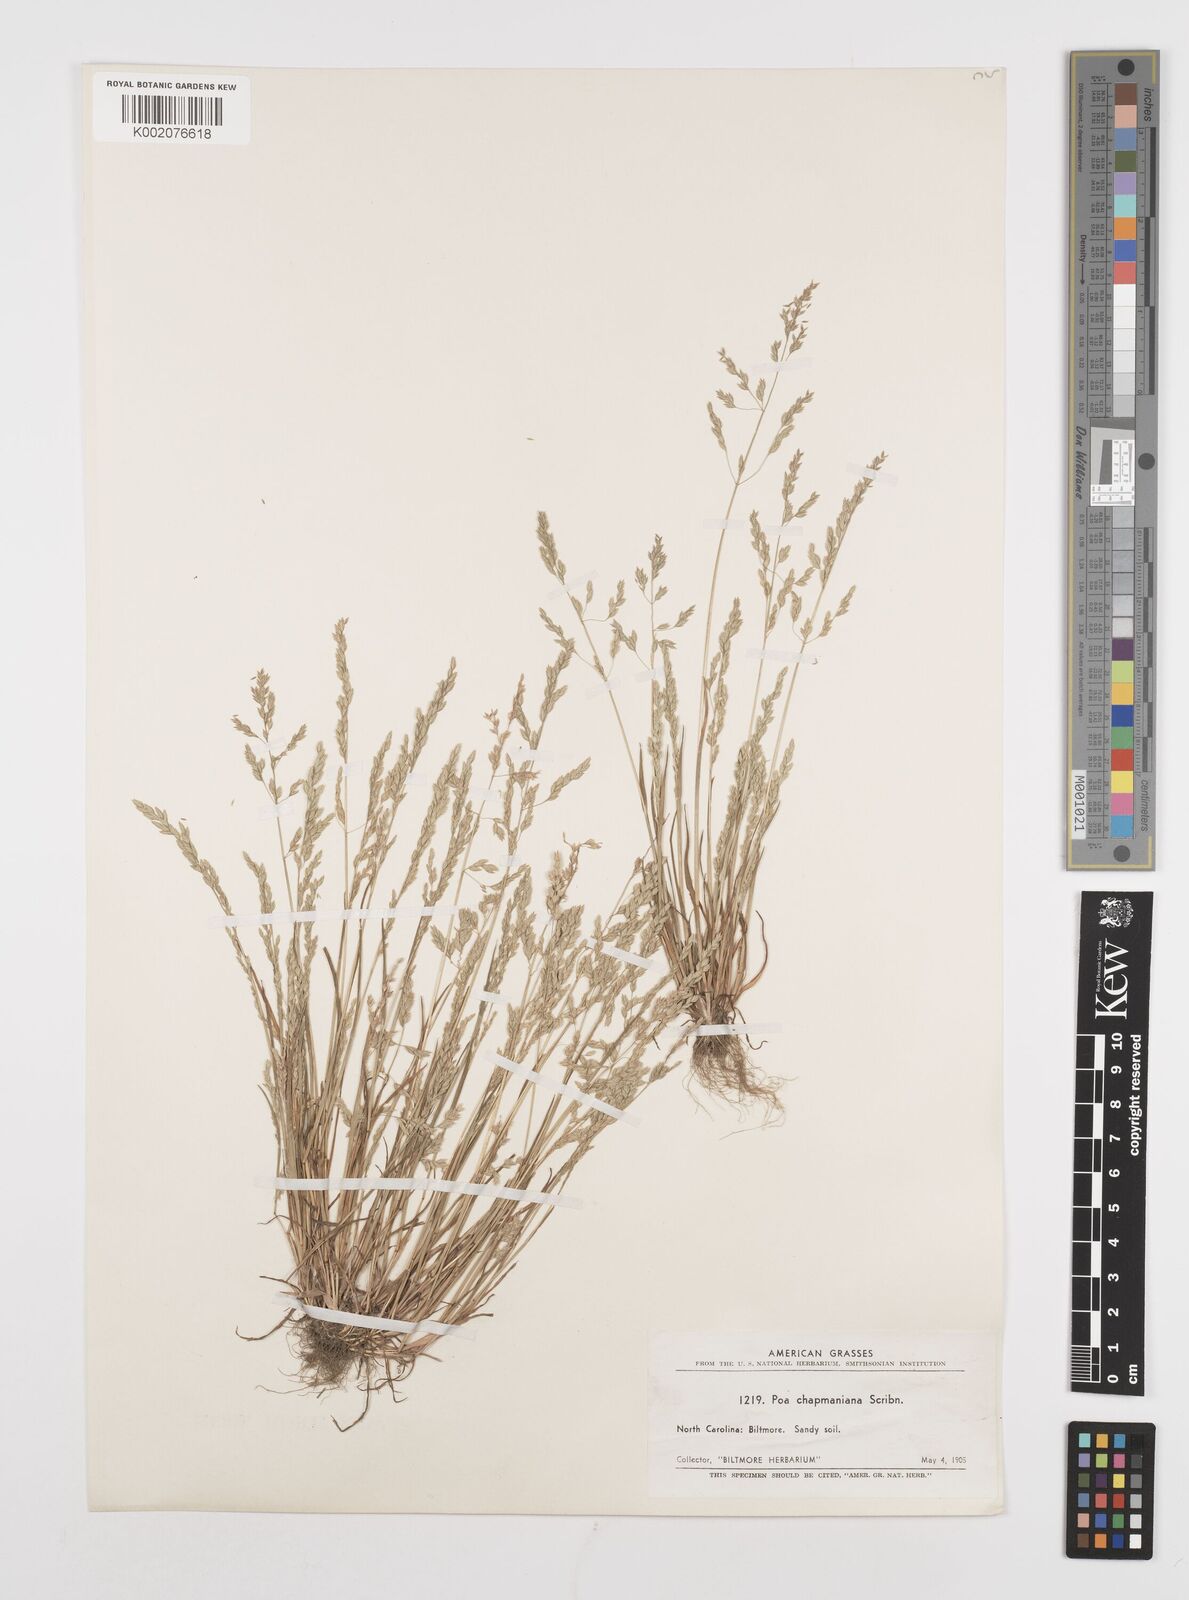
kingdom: Plantae
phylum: Tracheophyta
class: Liliopsida
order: Poales
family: Poaceae
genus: Poa
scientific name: Poa chapmaniana
